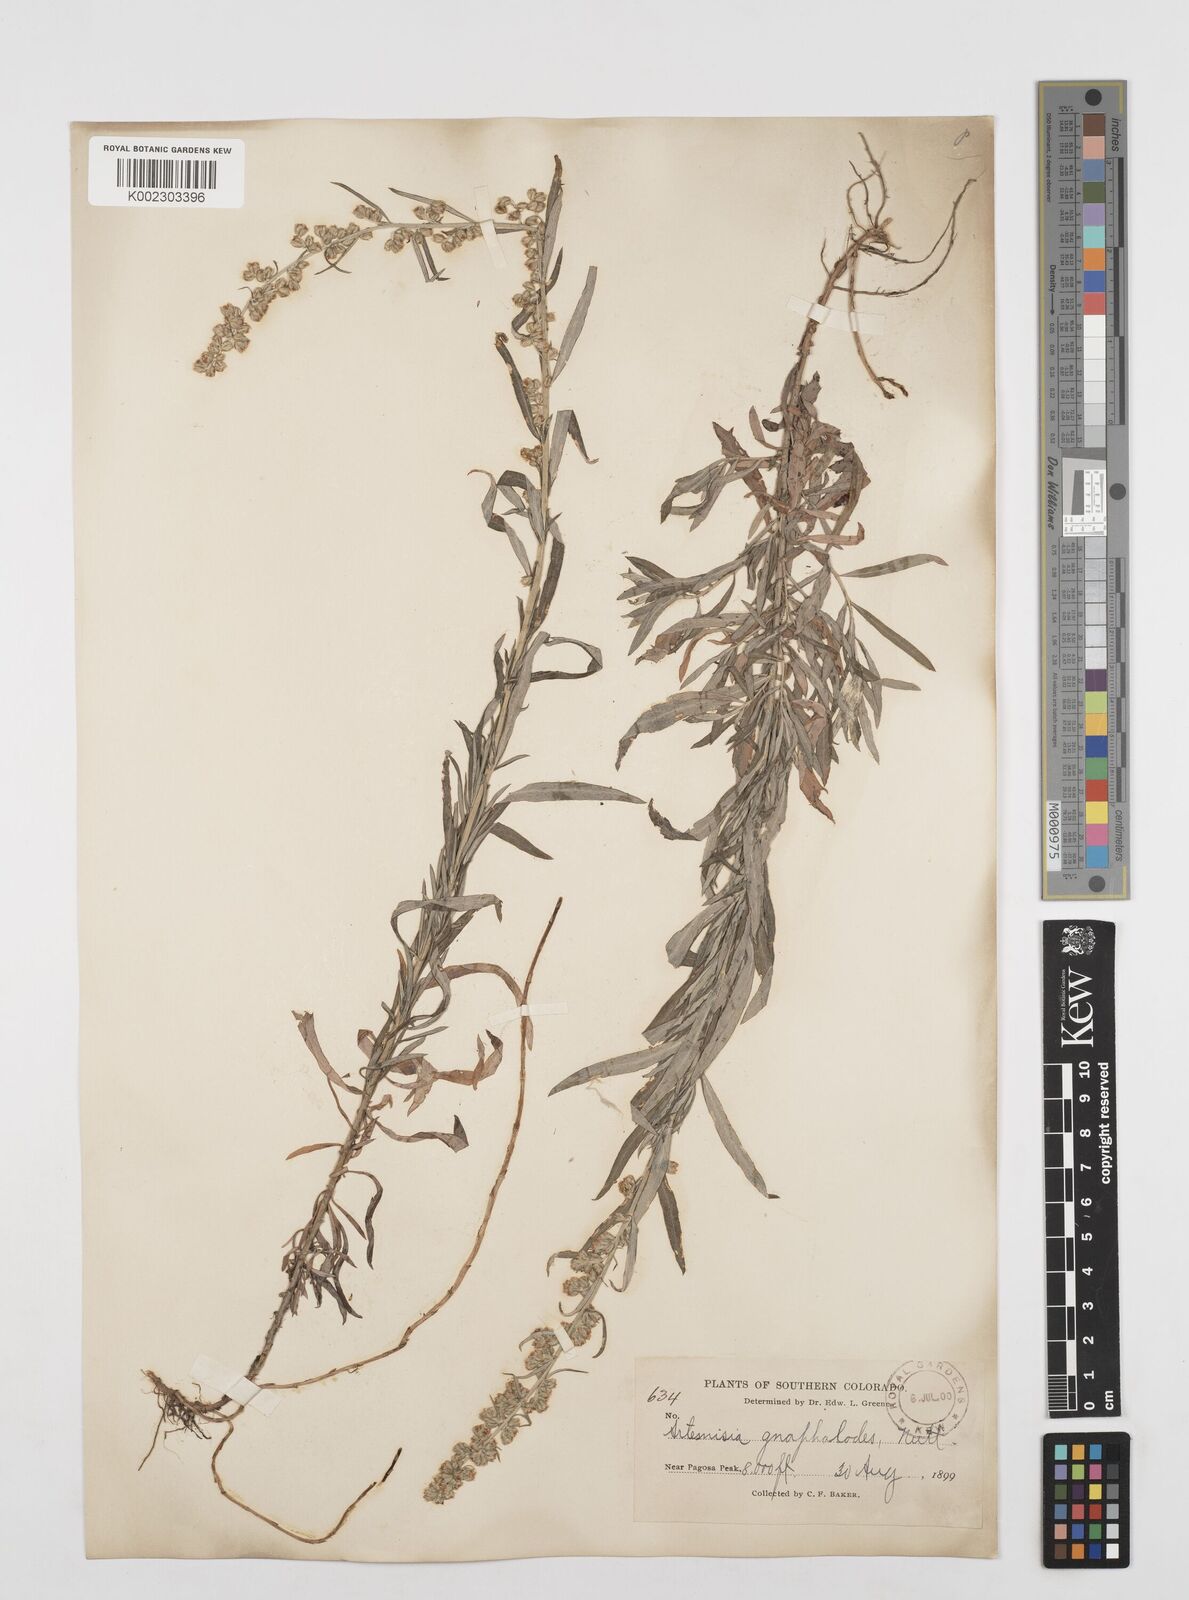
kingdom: Plantae
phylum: Tracheophyta
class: Magnoliopsida
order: Asterales
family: Asteraceae
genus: Artemisia
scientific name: Artemisia
